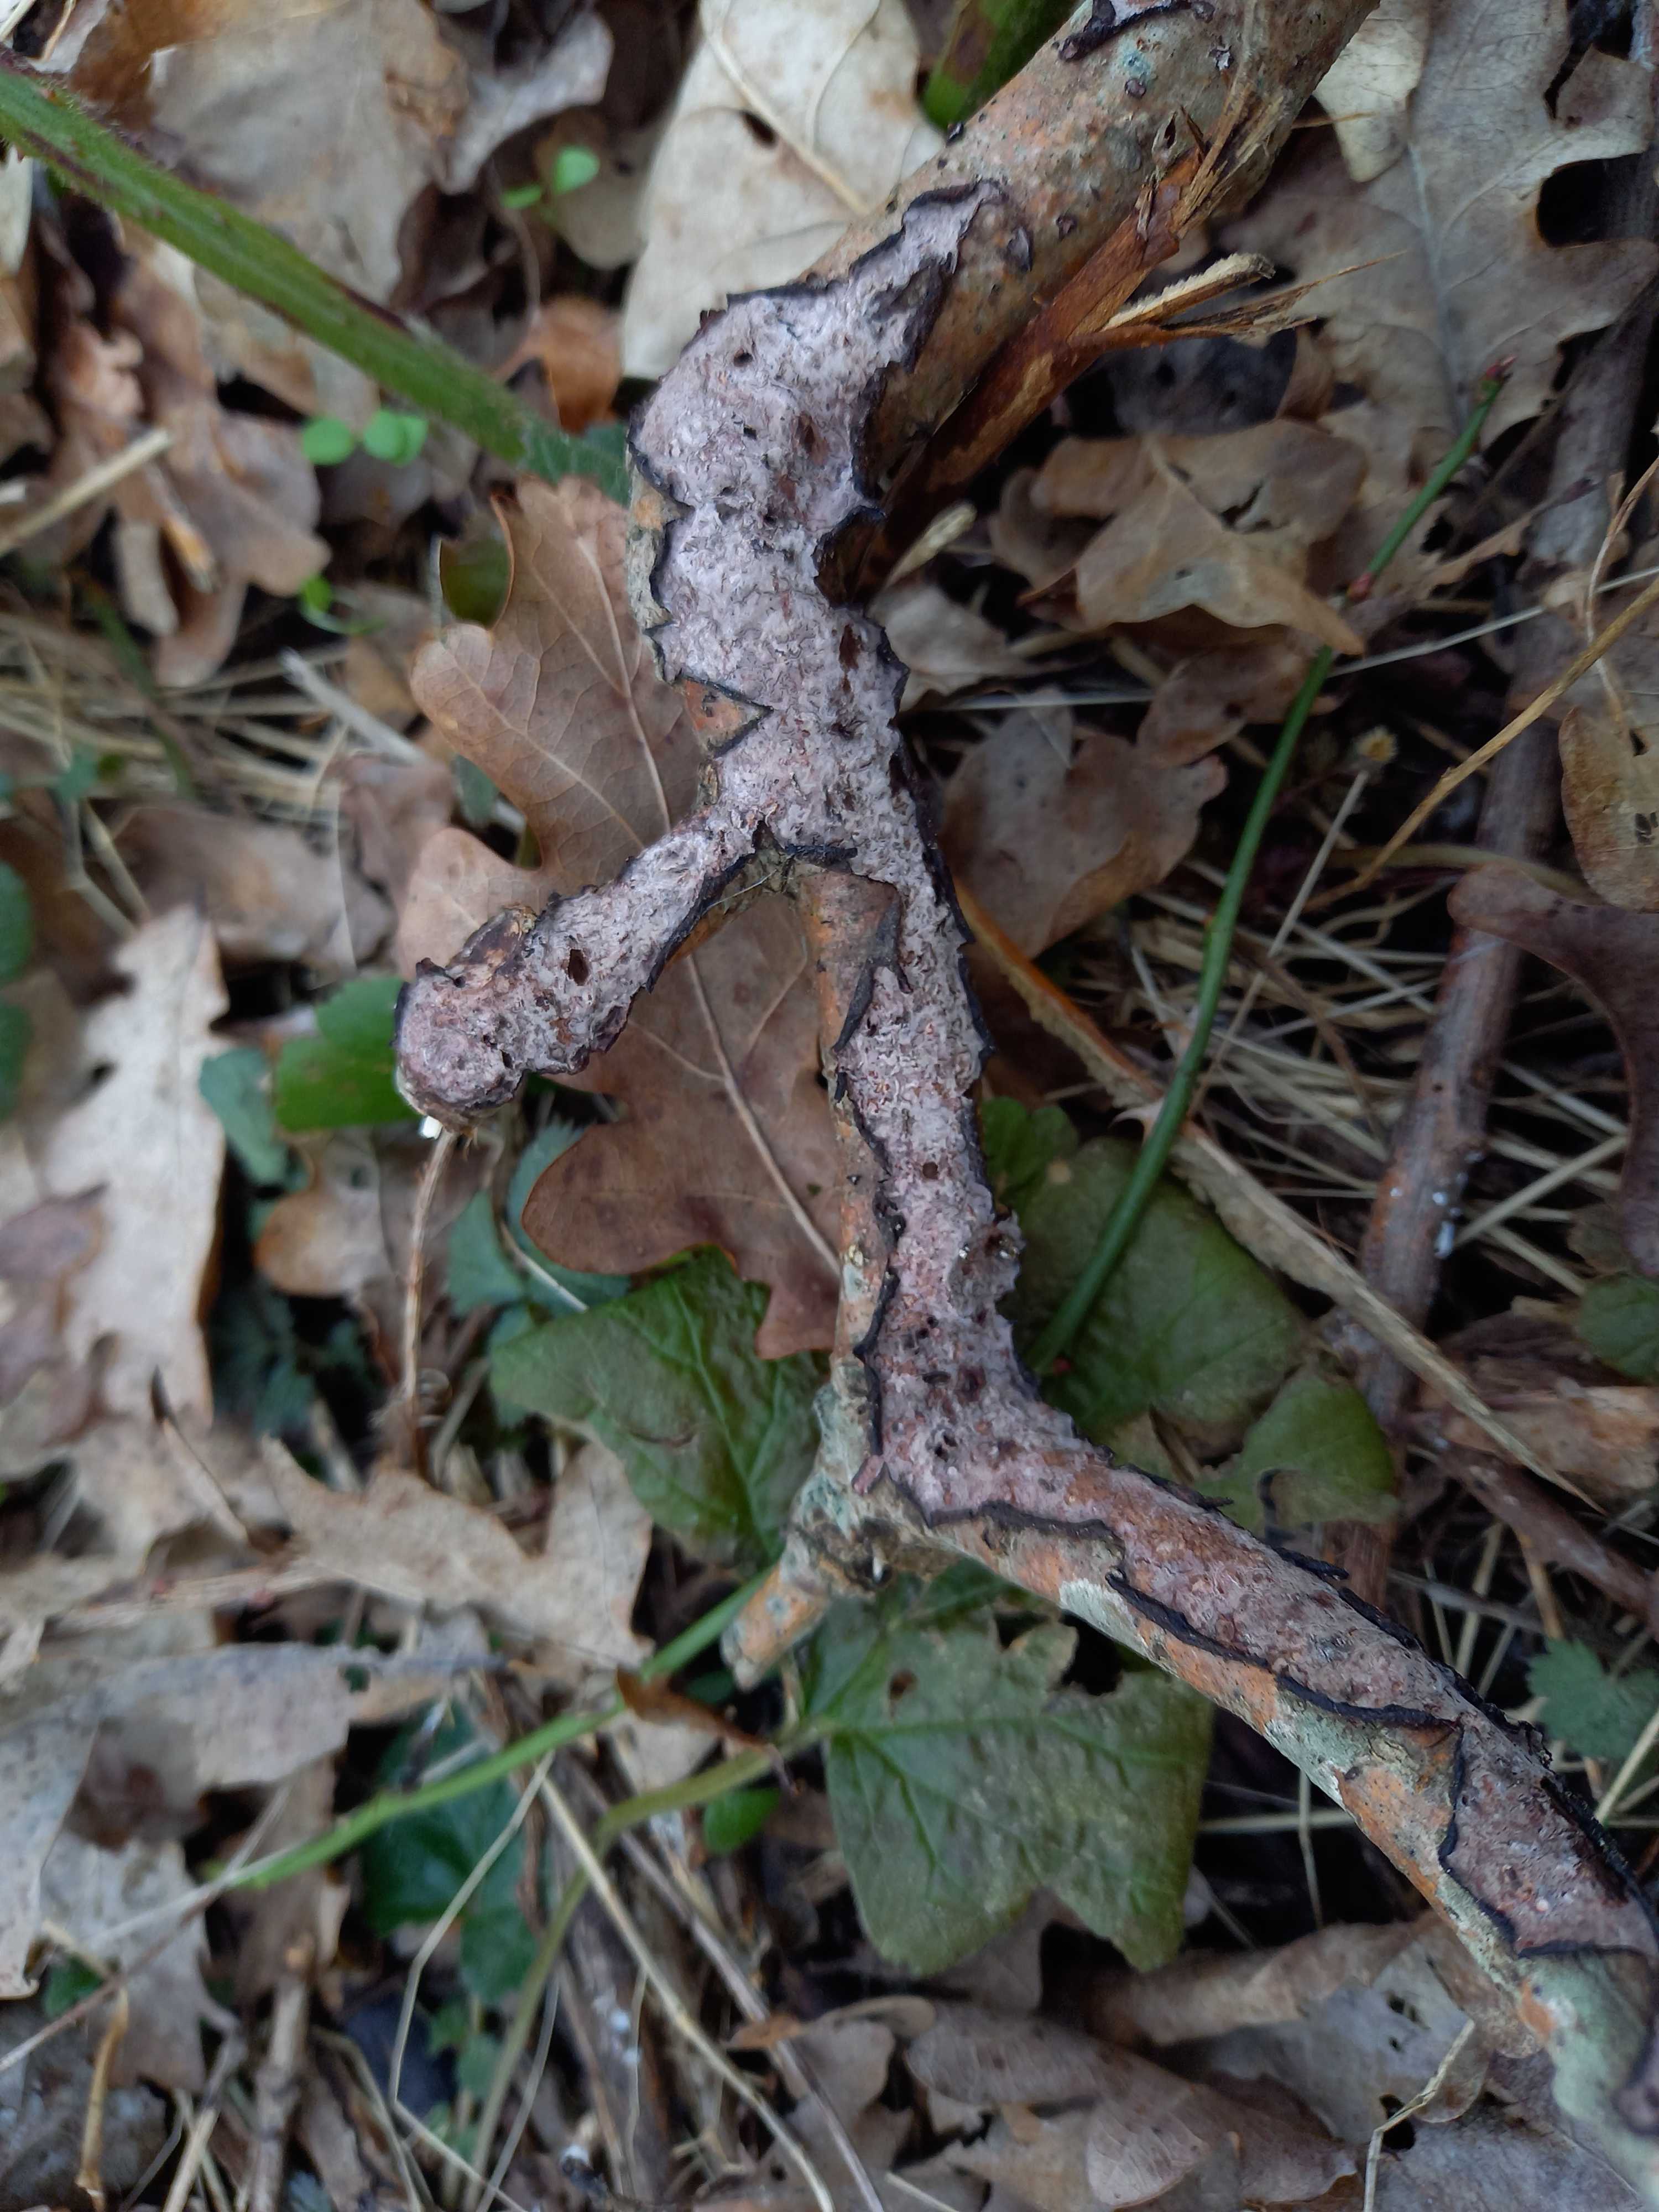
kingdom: Fungi
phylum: Basidiomycota
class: Agaricomycetes
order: Russulales
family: Peniophoraceae
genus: Peniophora
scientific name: Peniophora quercina
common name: ege-voksskind
